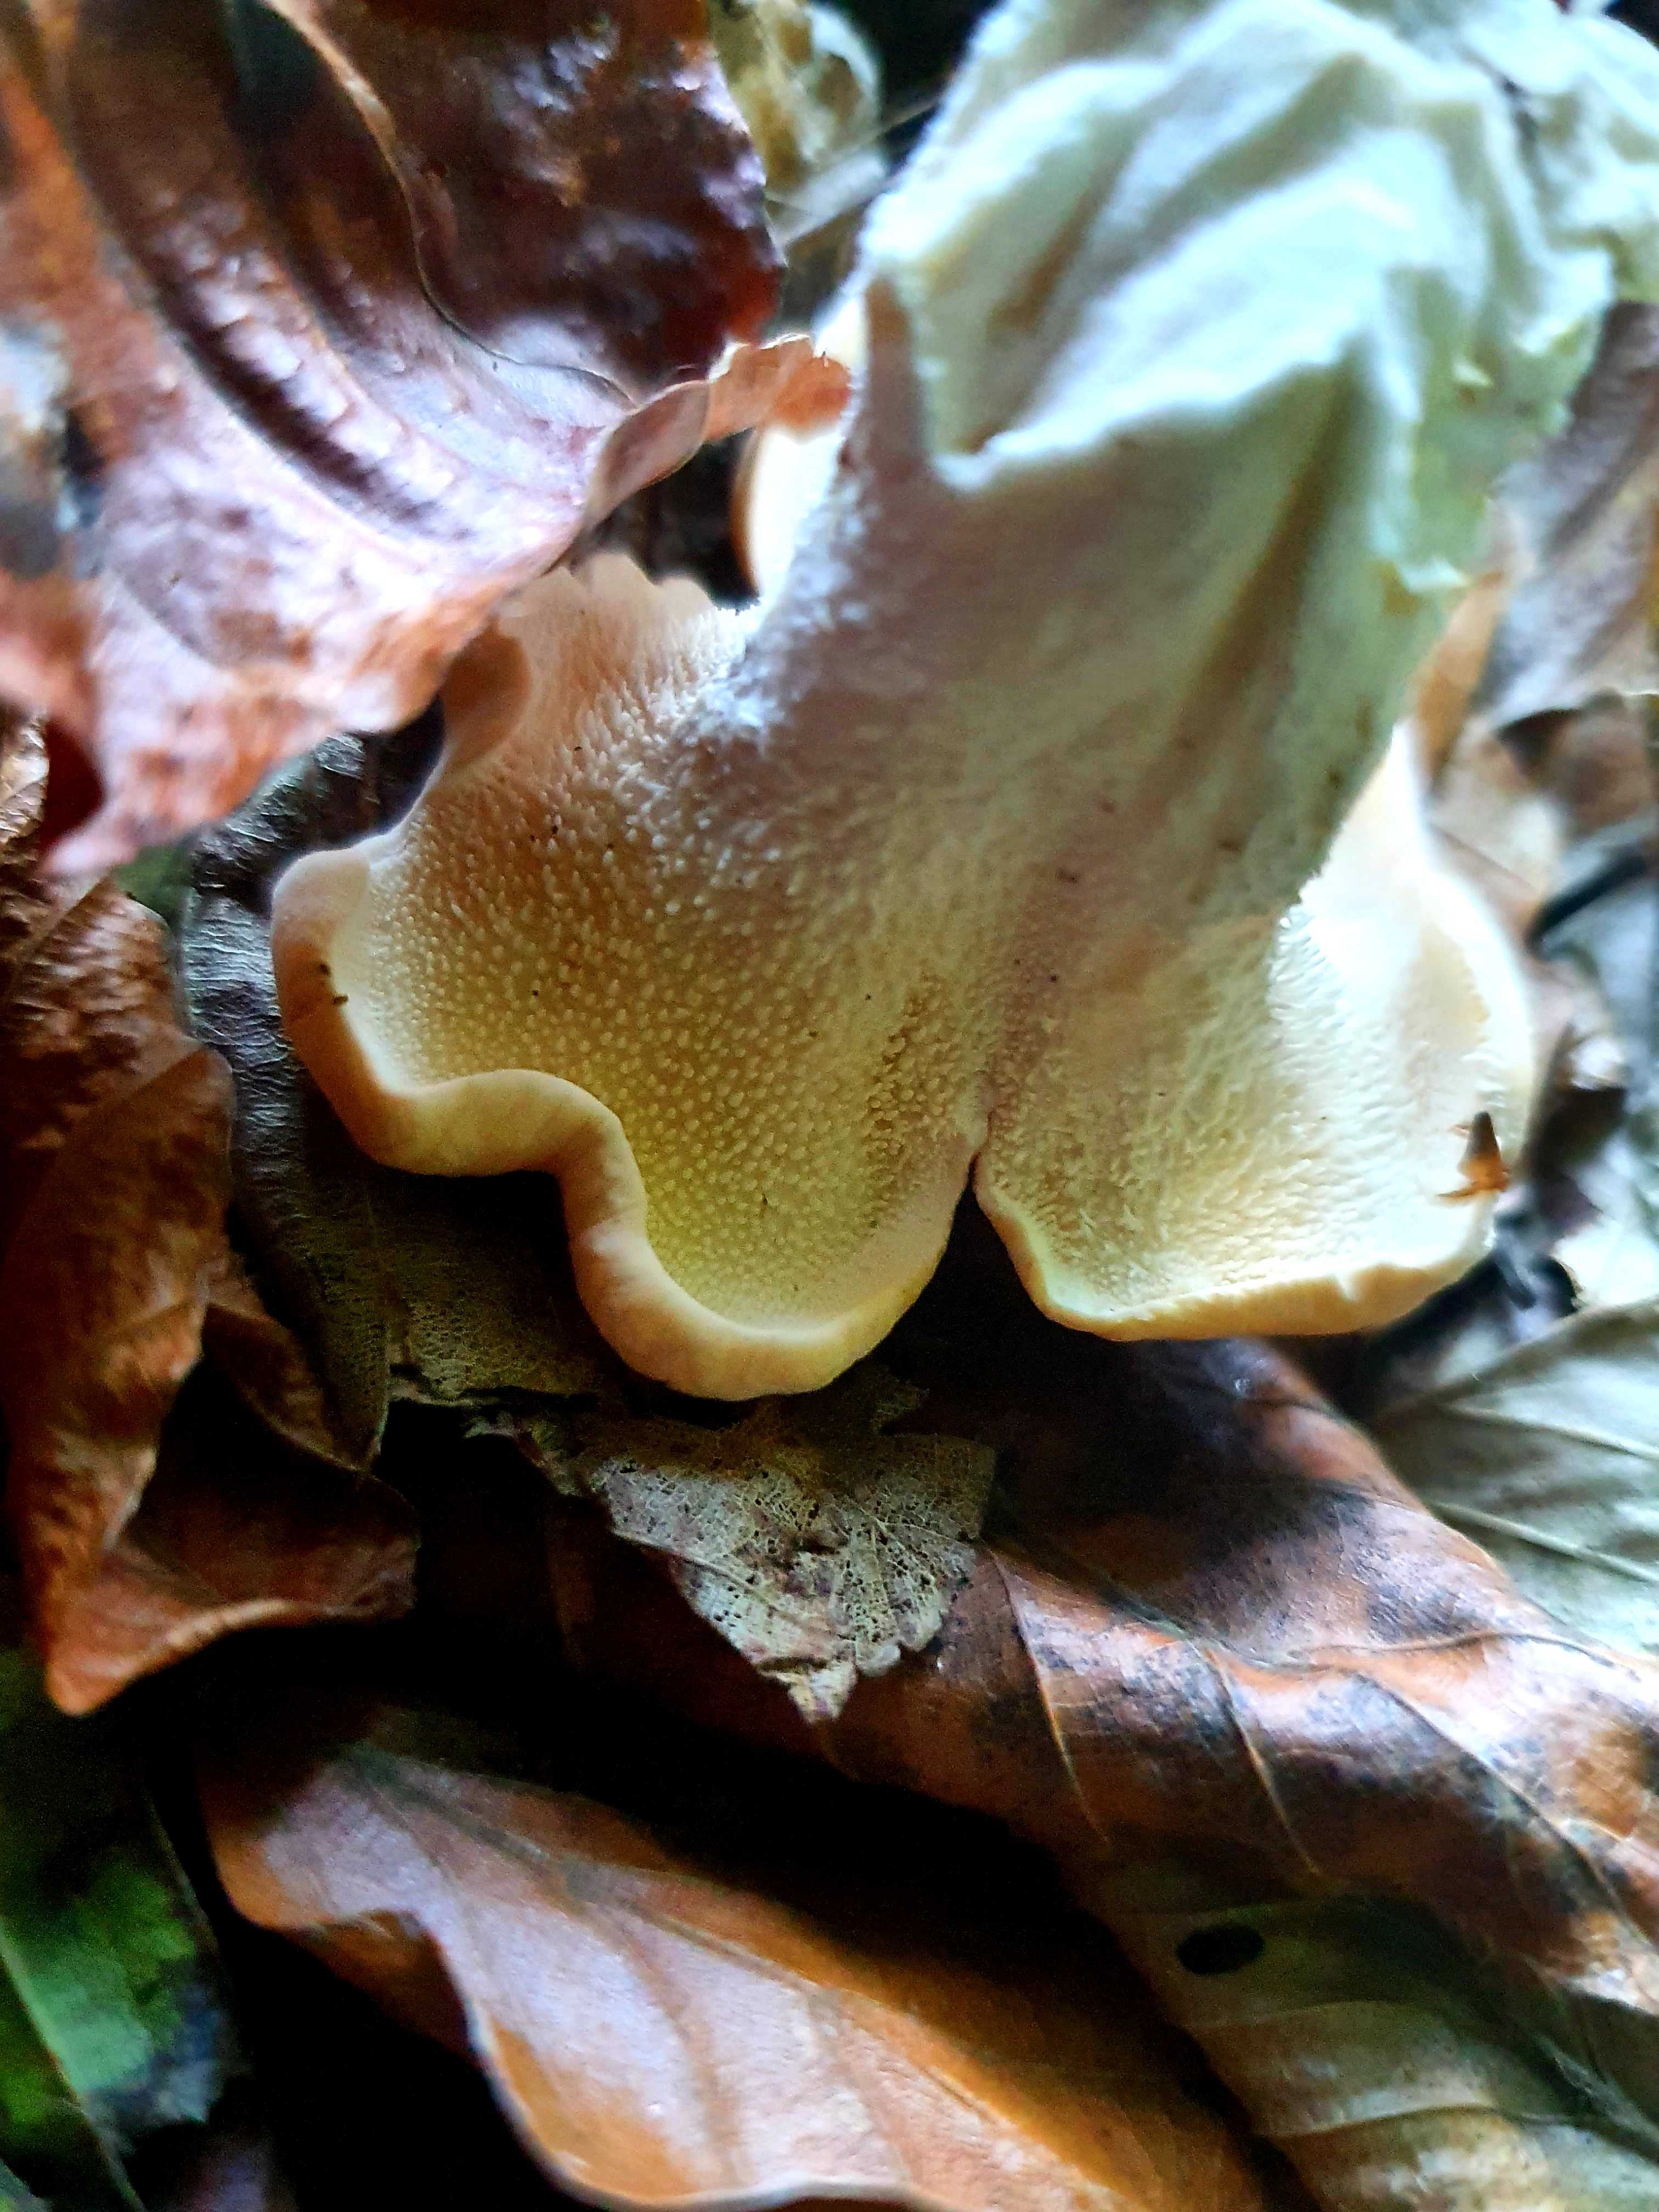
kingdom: Fungi
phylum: Basidiomycota
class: Agaricomycetes
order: Cantharellales
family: Hydnaceae
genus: Hydnum
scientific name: Hydnum
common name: pigsvamp
